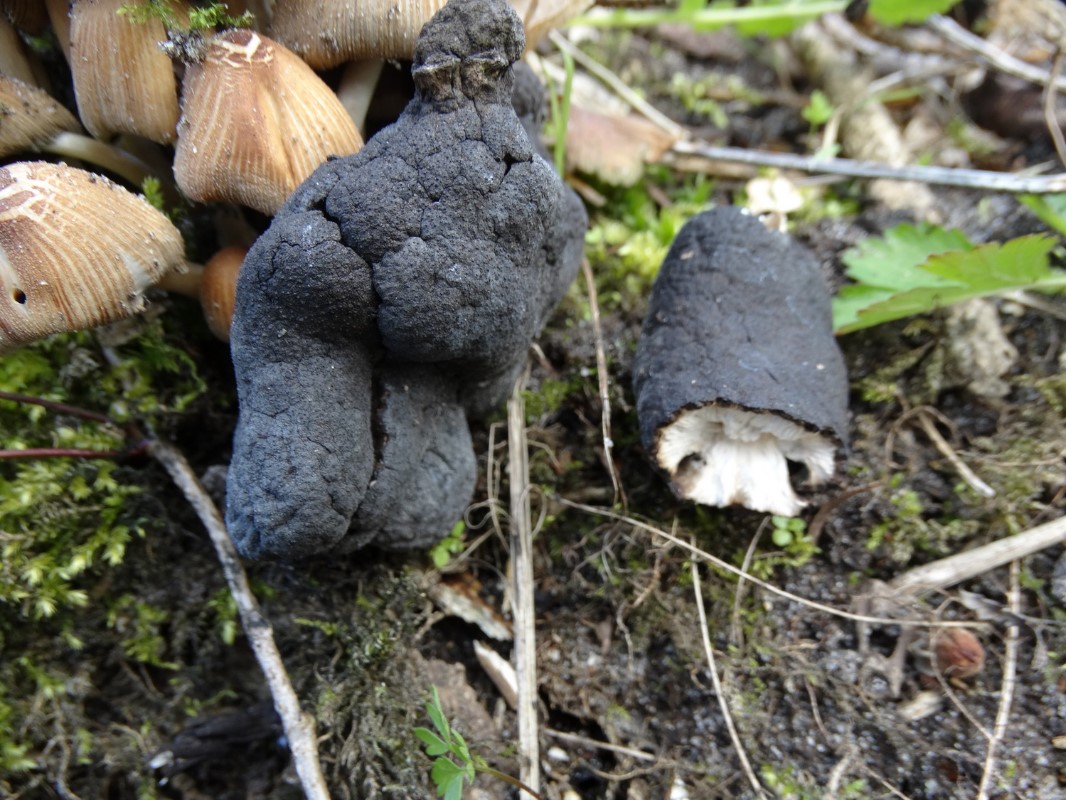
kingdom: Fungi
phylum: Ascomycota
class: Sordariomycetes
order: Xylariales
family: Xylariaceae
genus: Xylaria
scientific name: Xylaria polymorpha
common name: kølle-stødsvamp
